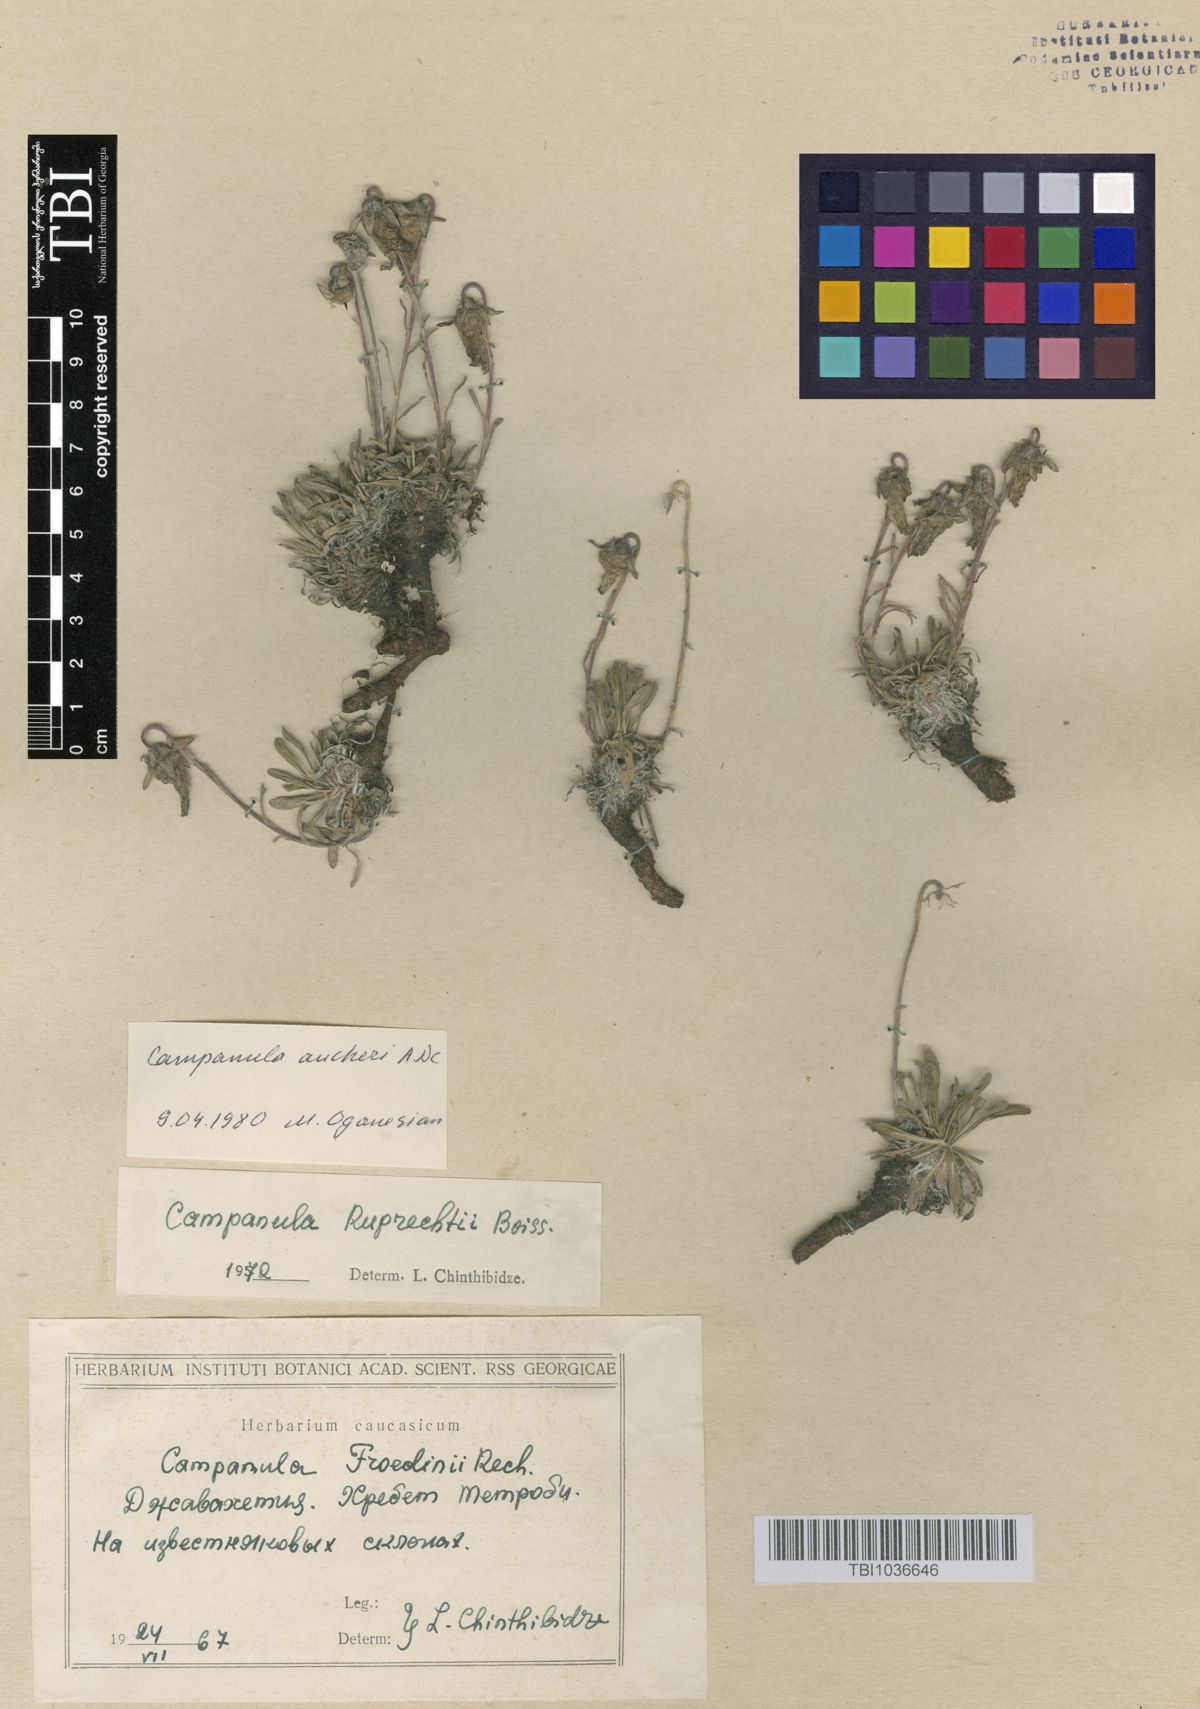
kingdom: Plantae
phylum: Tracheophyta
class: Magnoliopsida
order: Asterales
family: Campanulaceae
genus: Campanula
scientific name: Campanula tridentata
